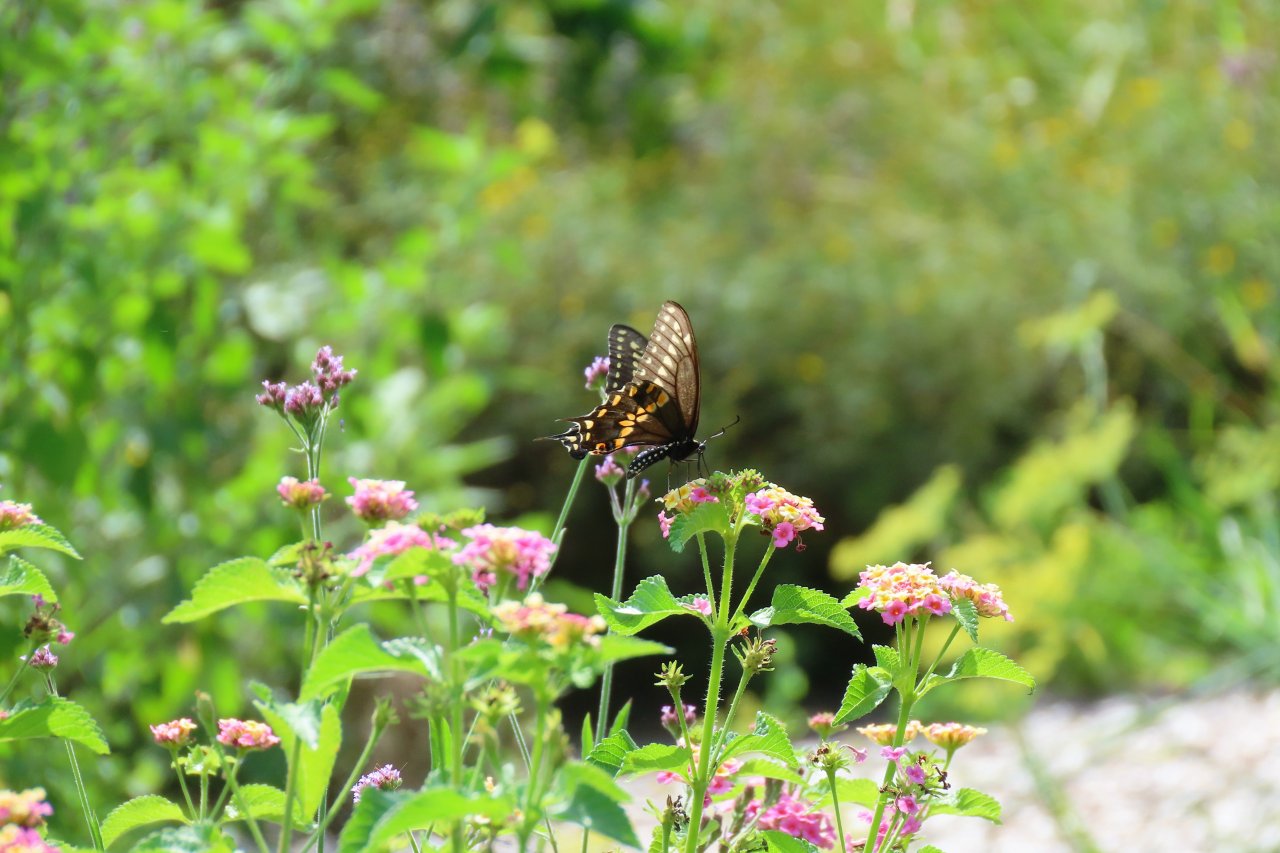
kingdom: Animalia
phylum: Arthropoda
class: Insecta
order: Lepidoptera
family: Papilionidae
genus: Papilio
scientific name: Papilio polyxenes
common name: Black Swallowtail
